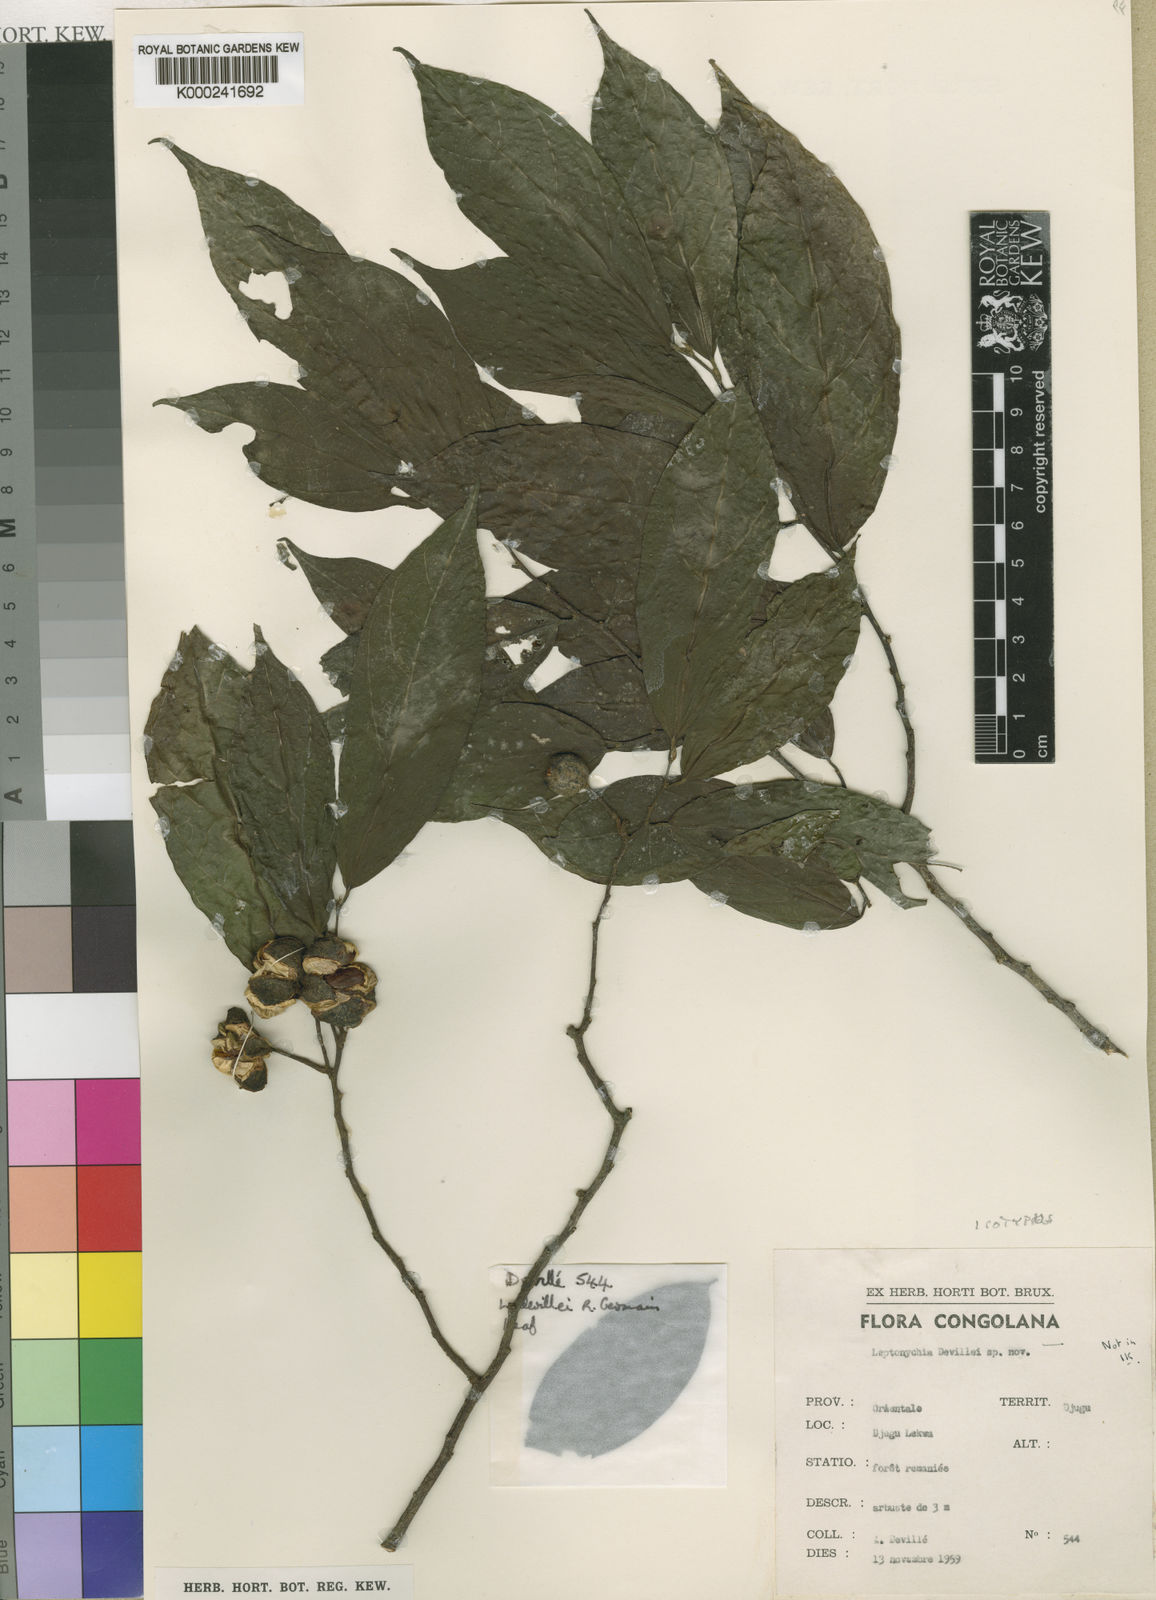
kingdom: Plantae
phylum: Tracheophyta
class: Magnoliopsida
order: Malvales
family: Malvaceae
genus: Leptonychia
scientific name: Leptonychia devillei
